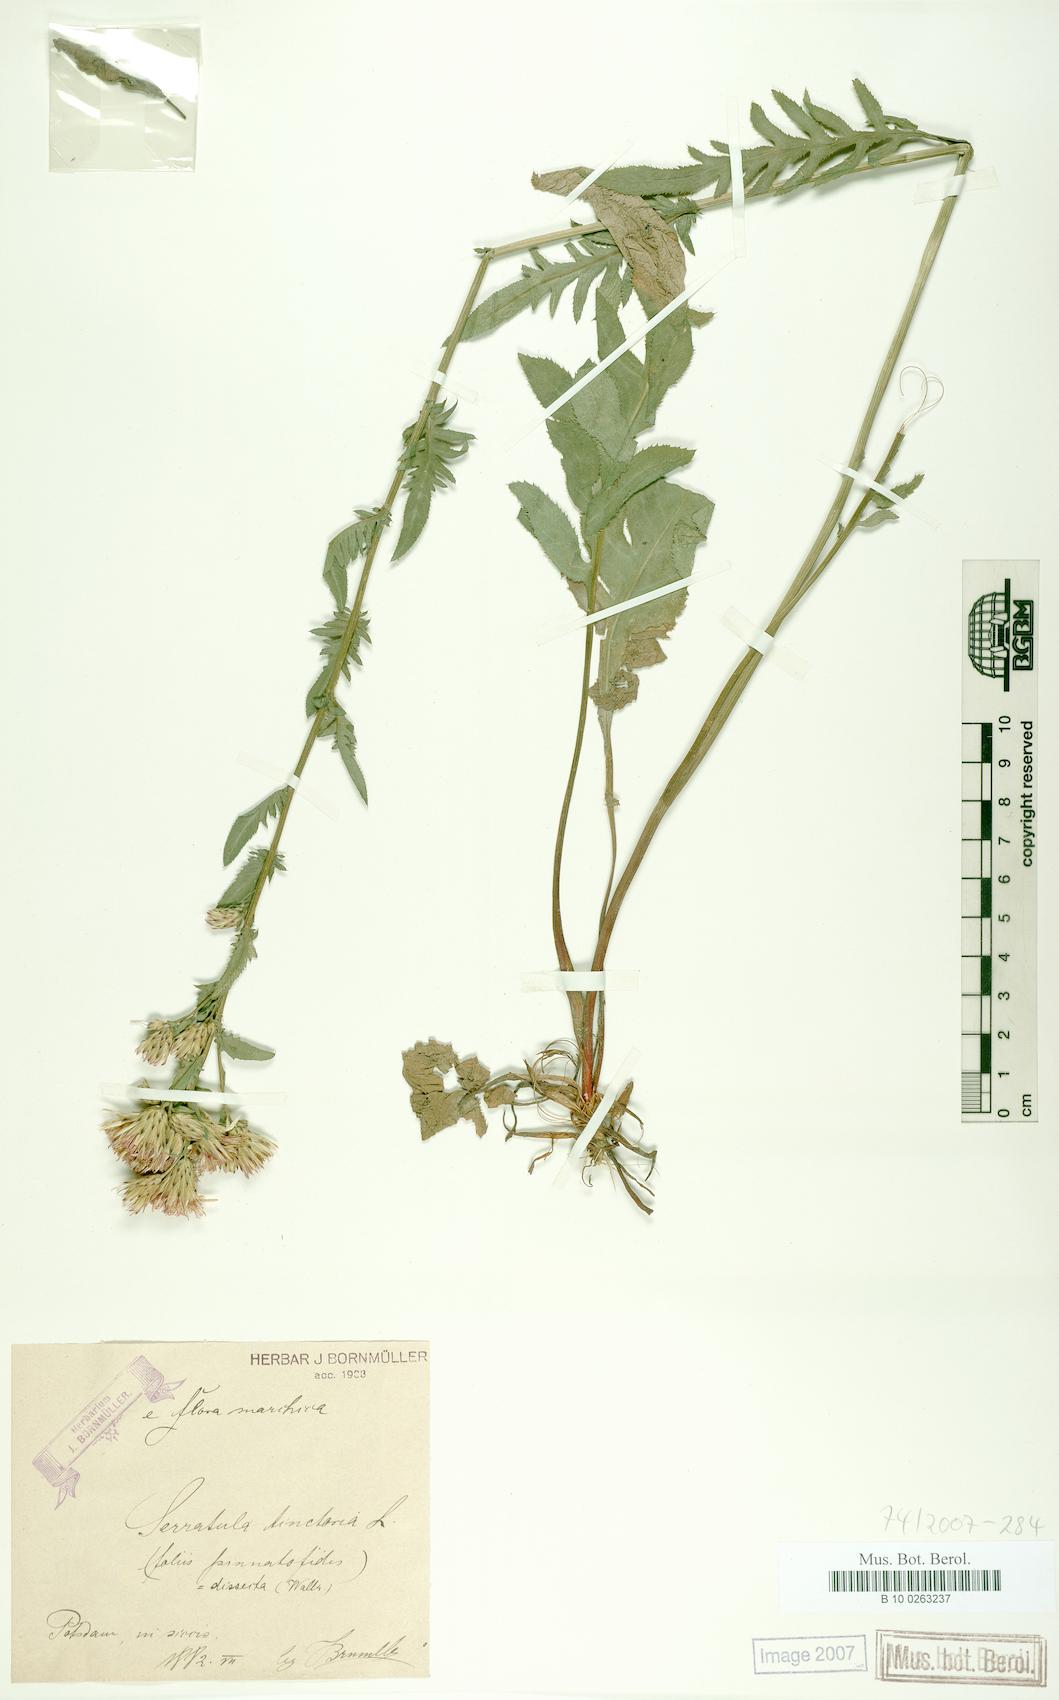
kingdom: Plantae
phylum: Tracheophyta
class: Magnoliopsida
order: Asterales
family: Asteraceae
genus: Serratula
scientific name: Serratula tinctoria
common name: Saw-wort
